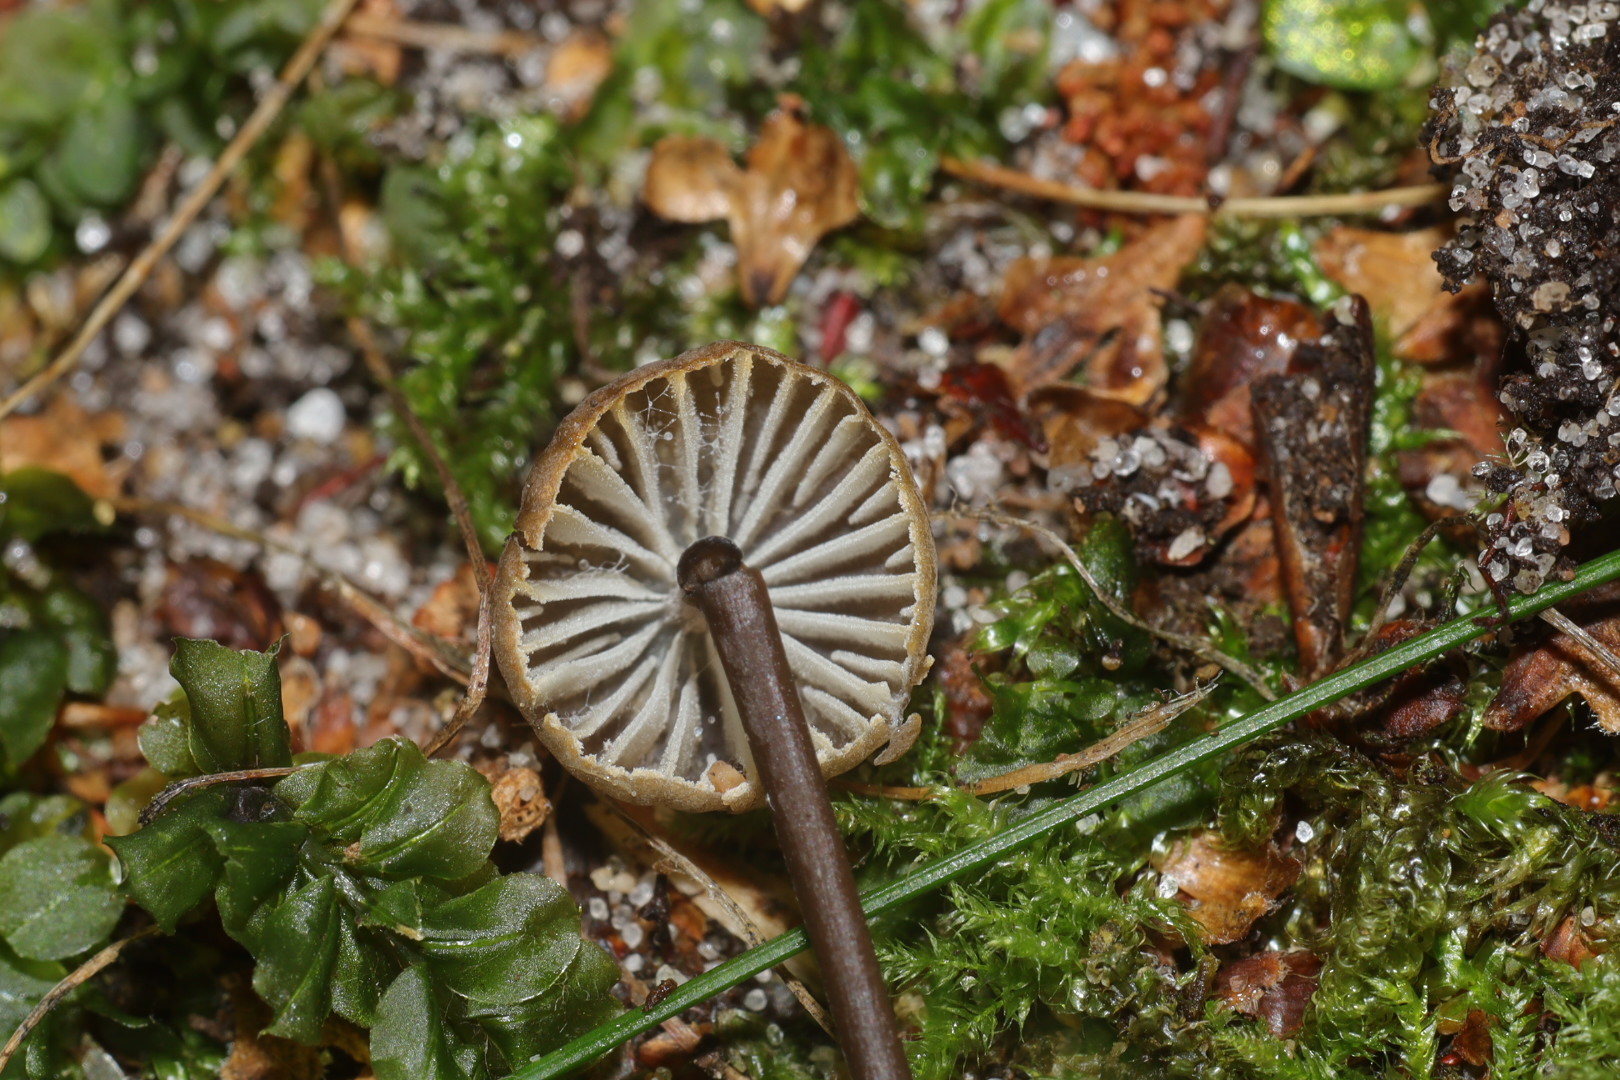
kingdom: Fungi
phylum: Basidiomycota
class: Agaricomycetes
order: Agaricales
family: Mycenaceae
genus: Mycena
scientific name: Mycena galopus
